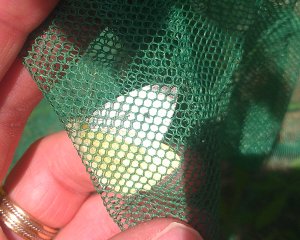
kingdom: Animalia
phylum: Arthropoda
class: Insecta
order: Lepidoptera
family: Pieridae
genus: Pieris
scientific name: Pieris rapae
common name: Cabbage White
